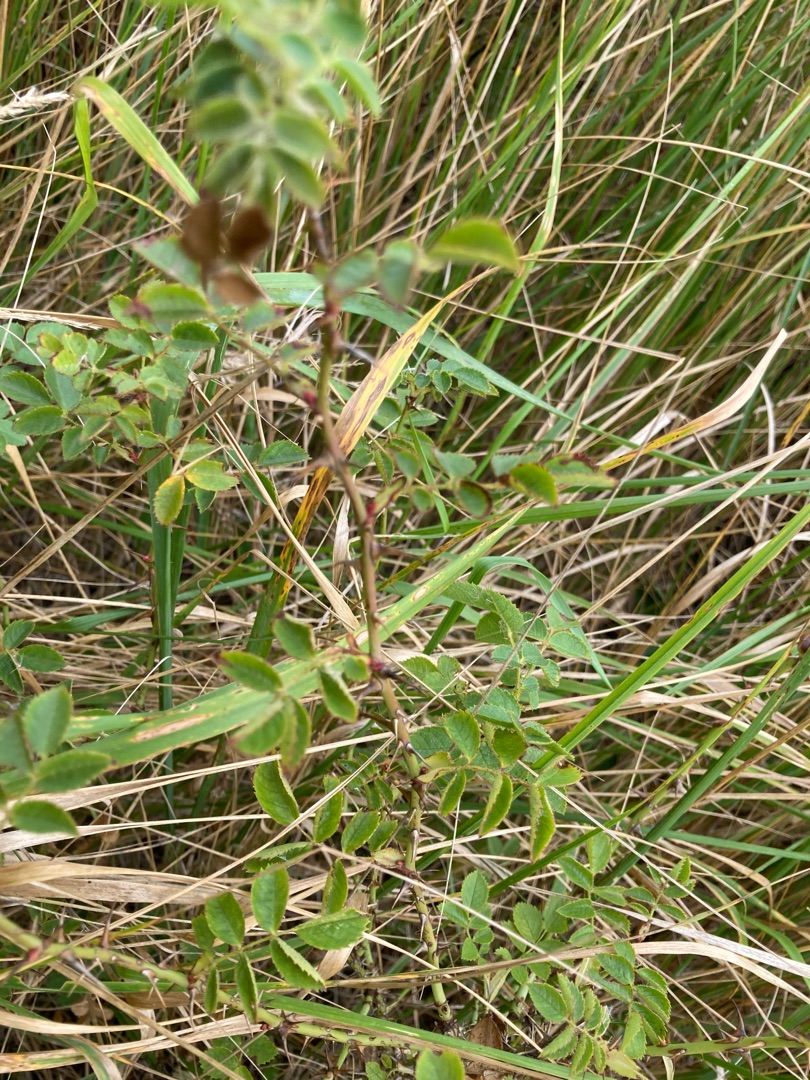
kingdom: Plantae
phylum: Tracheophyta
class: Magnoliopsida
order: Rosales
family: Rosaceae
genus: Rosa
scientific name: Rosa rubiginosa
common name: Æble-rose
